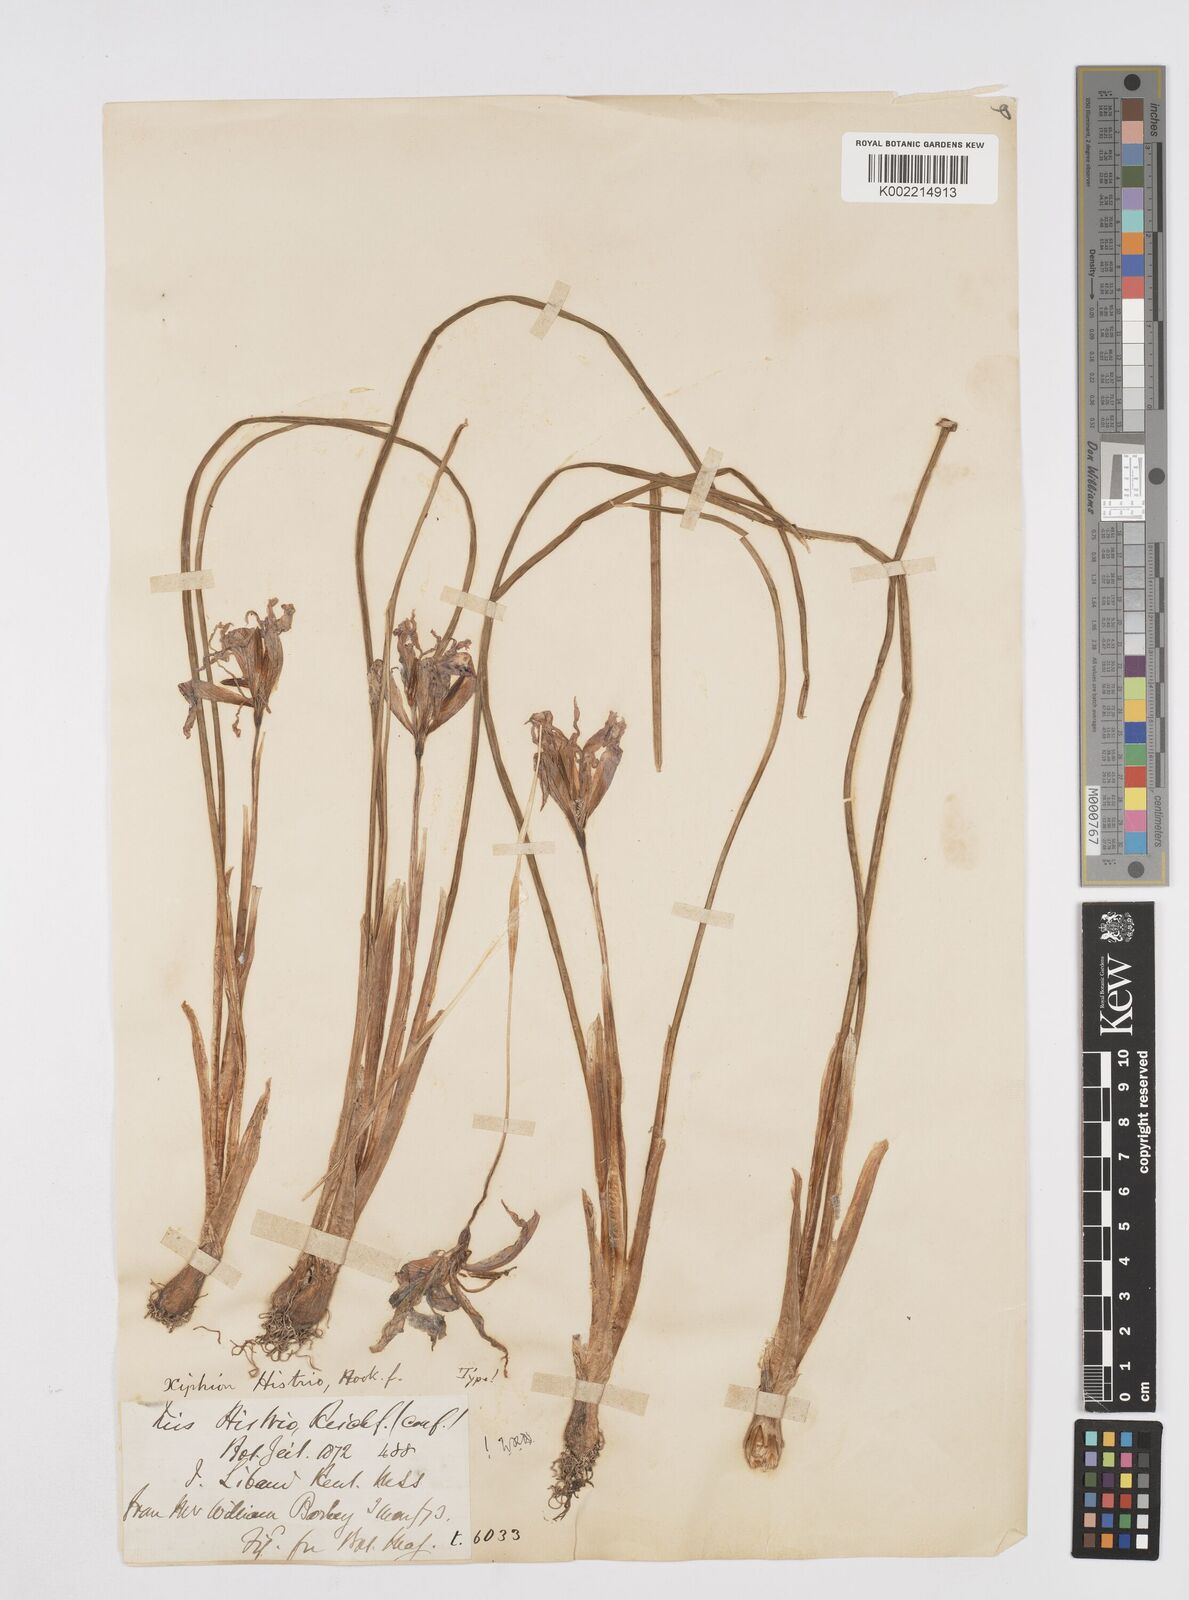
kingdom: Plantae
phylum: Tracheophyta
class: Liliopsida
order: Asparagales
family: Iridaceae
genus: Iris
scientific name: Iris histrio
